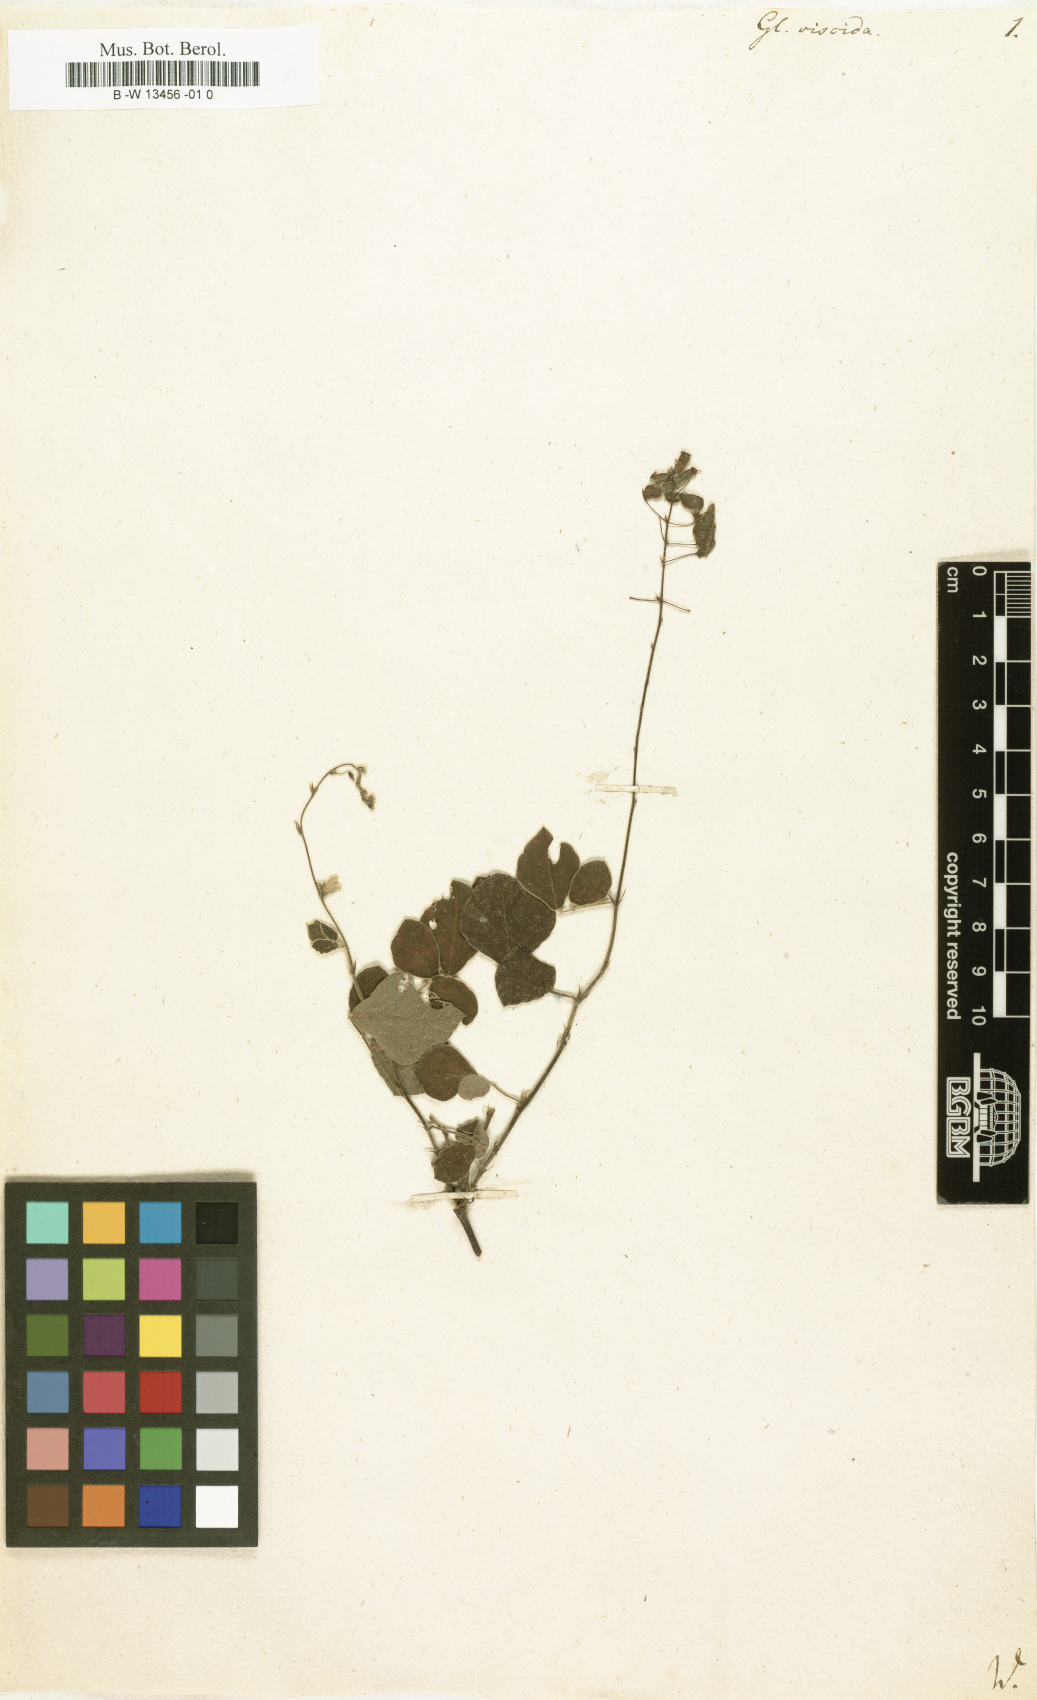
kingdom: Plantae
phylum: Tracheophyta
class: Magnoliopsida
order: Fabales
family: Fabaceae
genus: Pseudarthria
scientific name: Pseudarthria viscida
